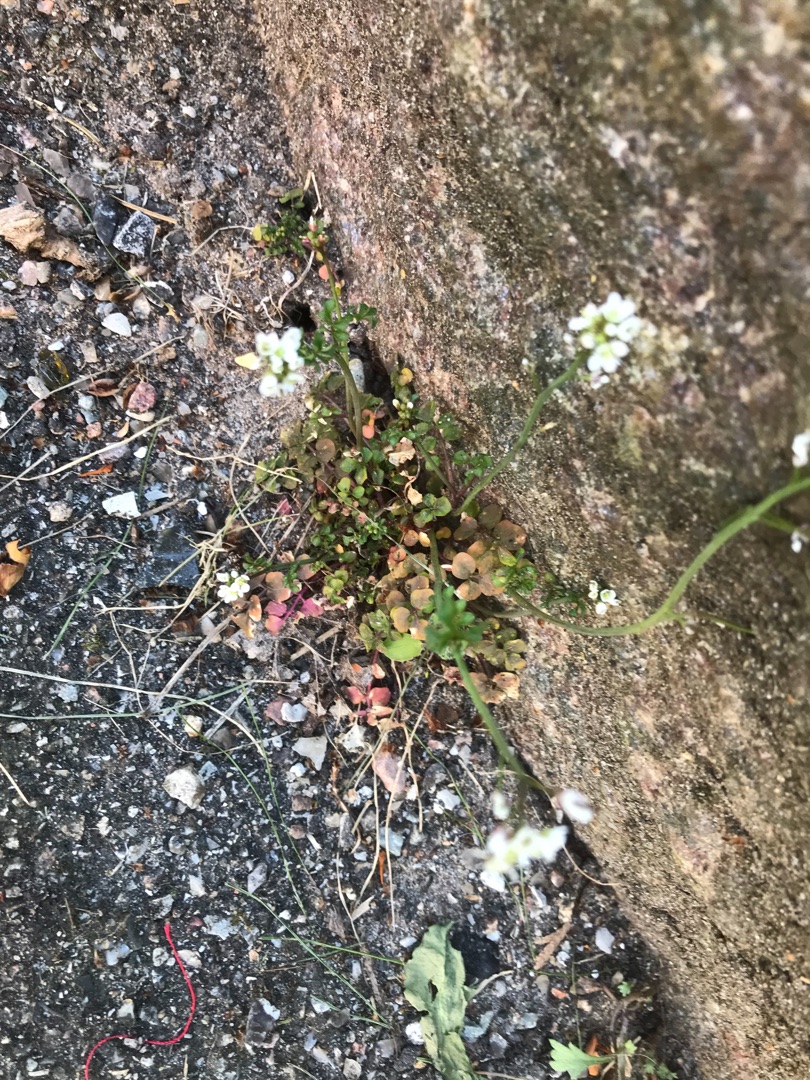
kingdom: Plantae
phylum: Tracheophyta
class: Magnoliopsida
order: Brassicales
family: Brassicaceae
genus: Cardamine
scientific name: Cardamine hirsuta
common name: Roset-springklap
